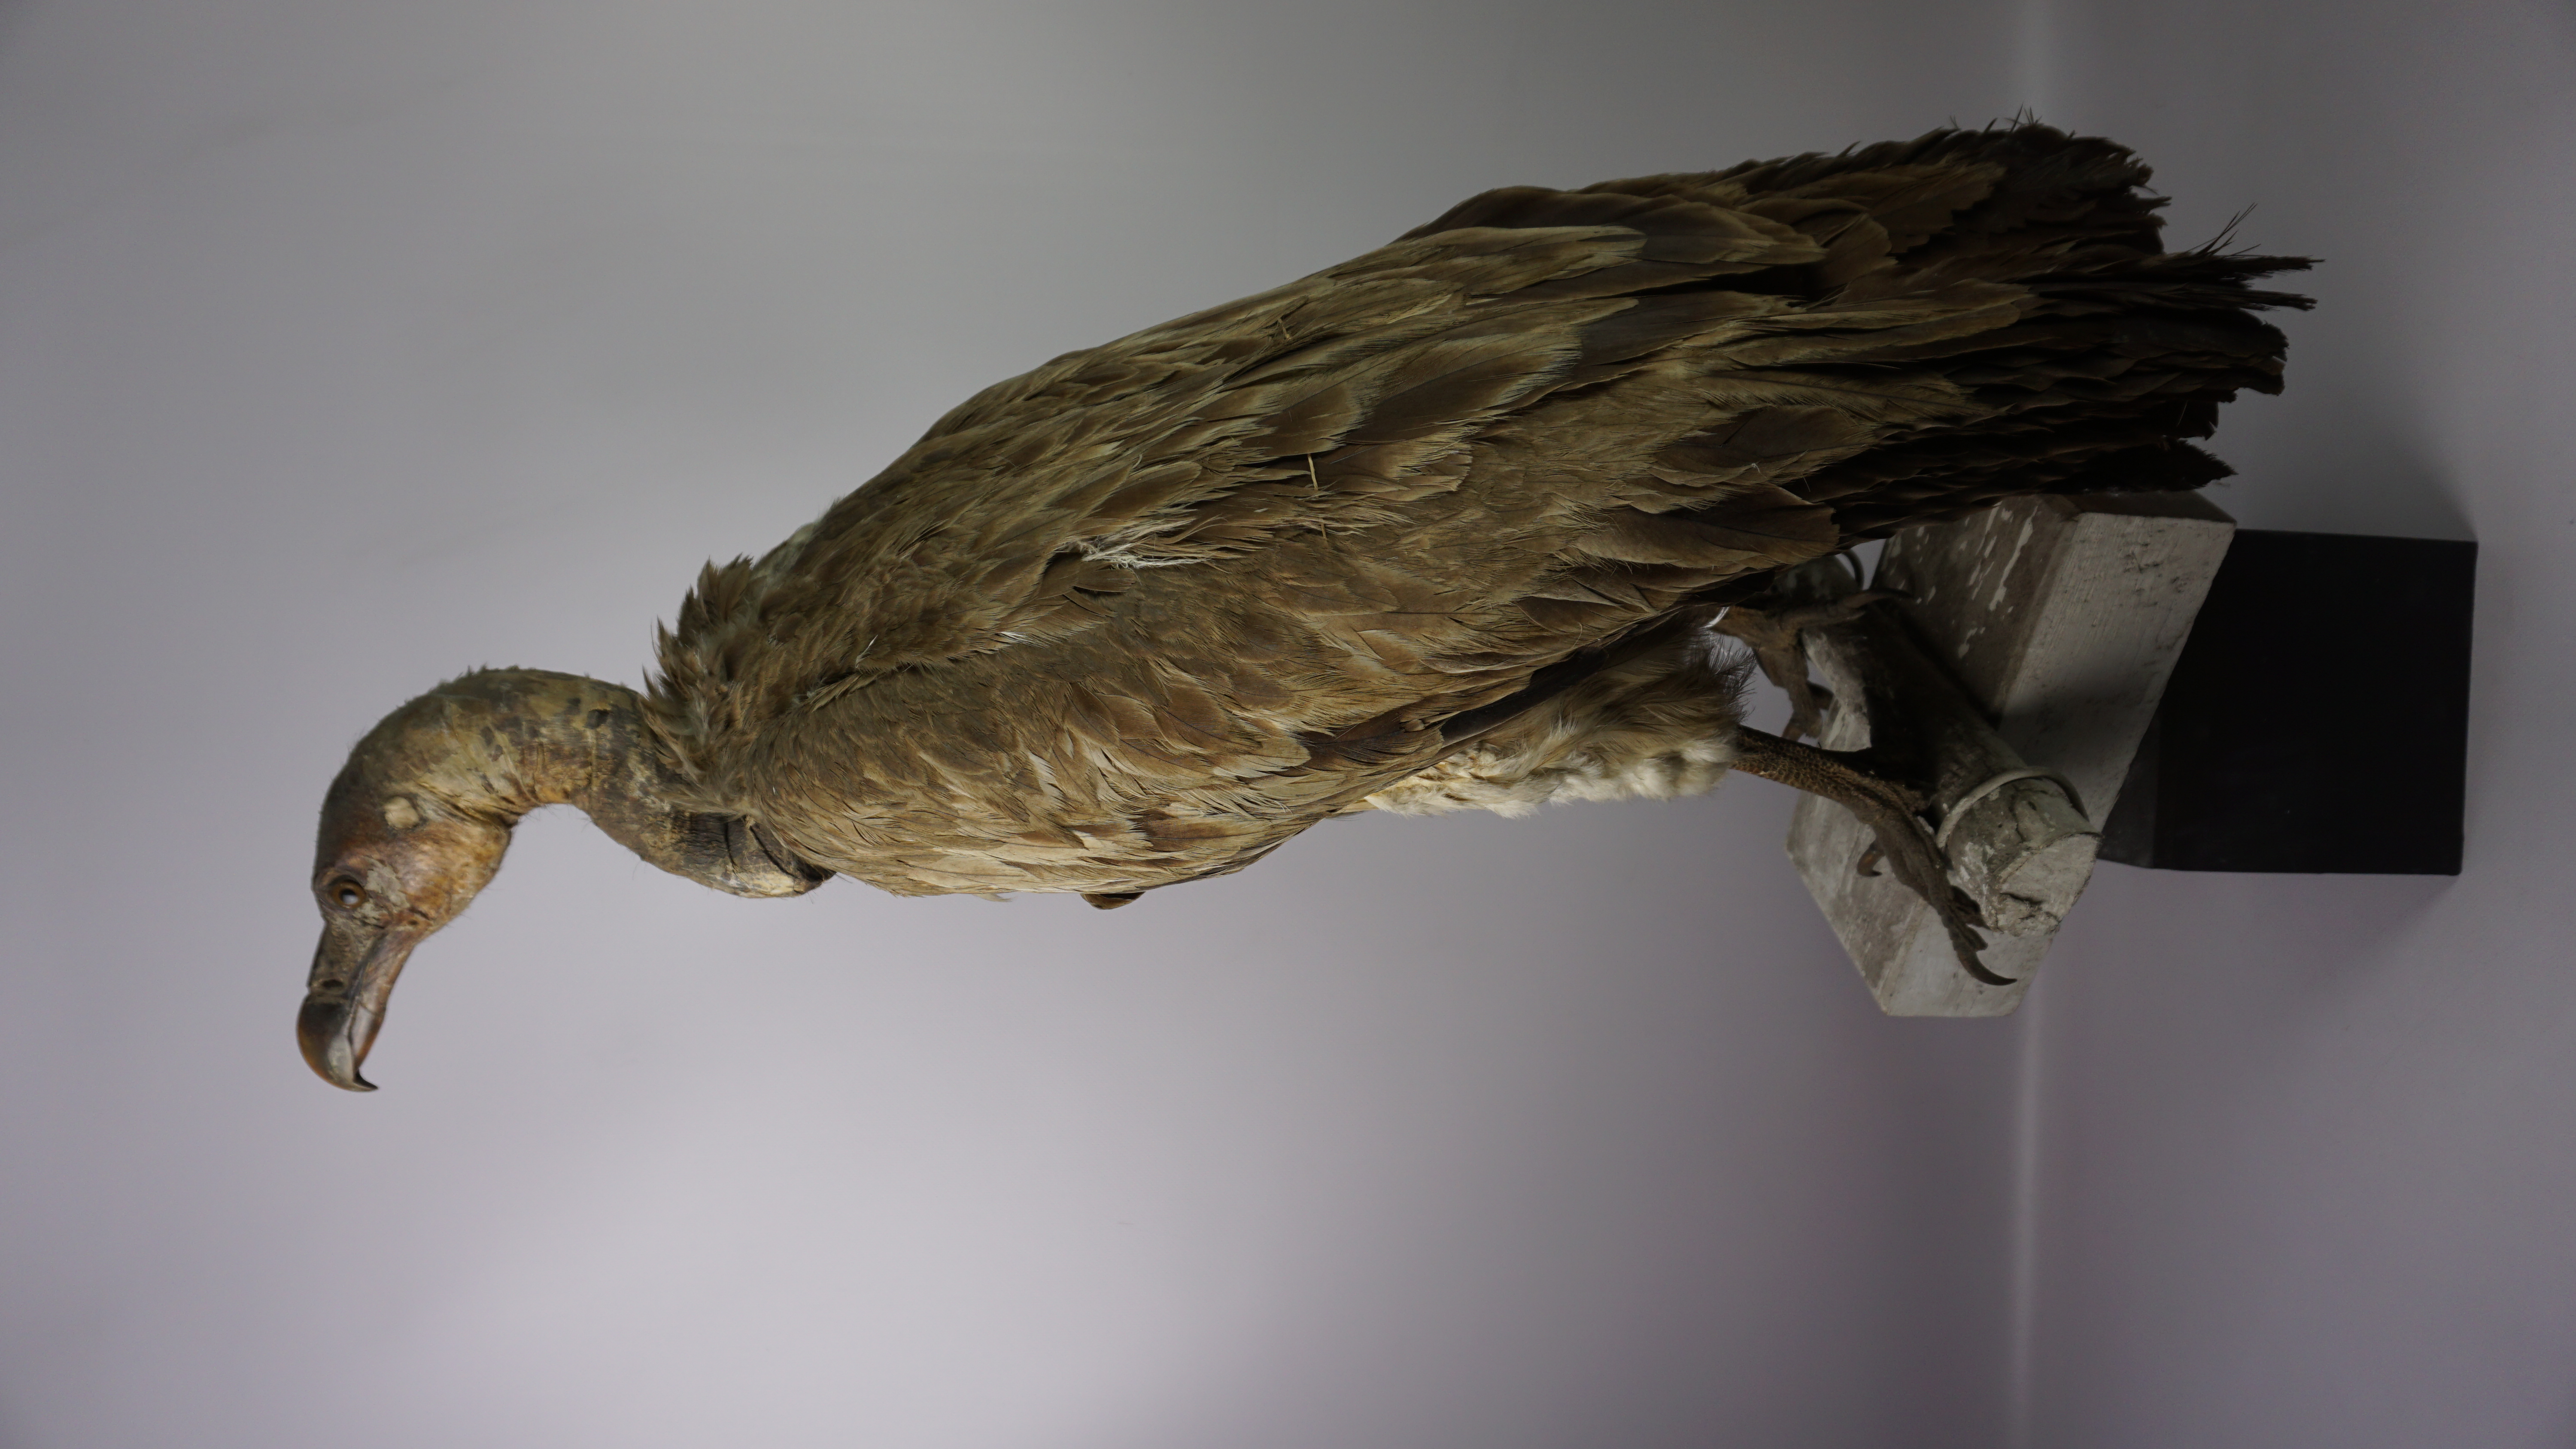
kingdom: Animalia
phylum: Chordata
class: Aves
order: Accipitriformes
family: Accipitridae
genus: Gyps
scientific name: Gyps tenuirostris
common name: Slender-billed vulture
